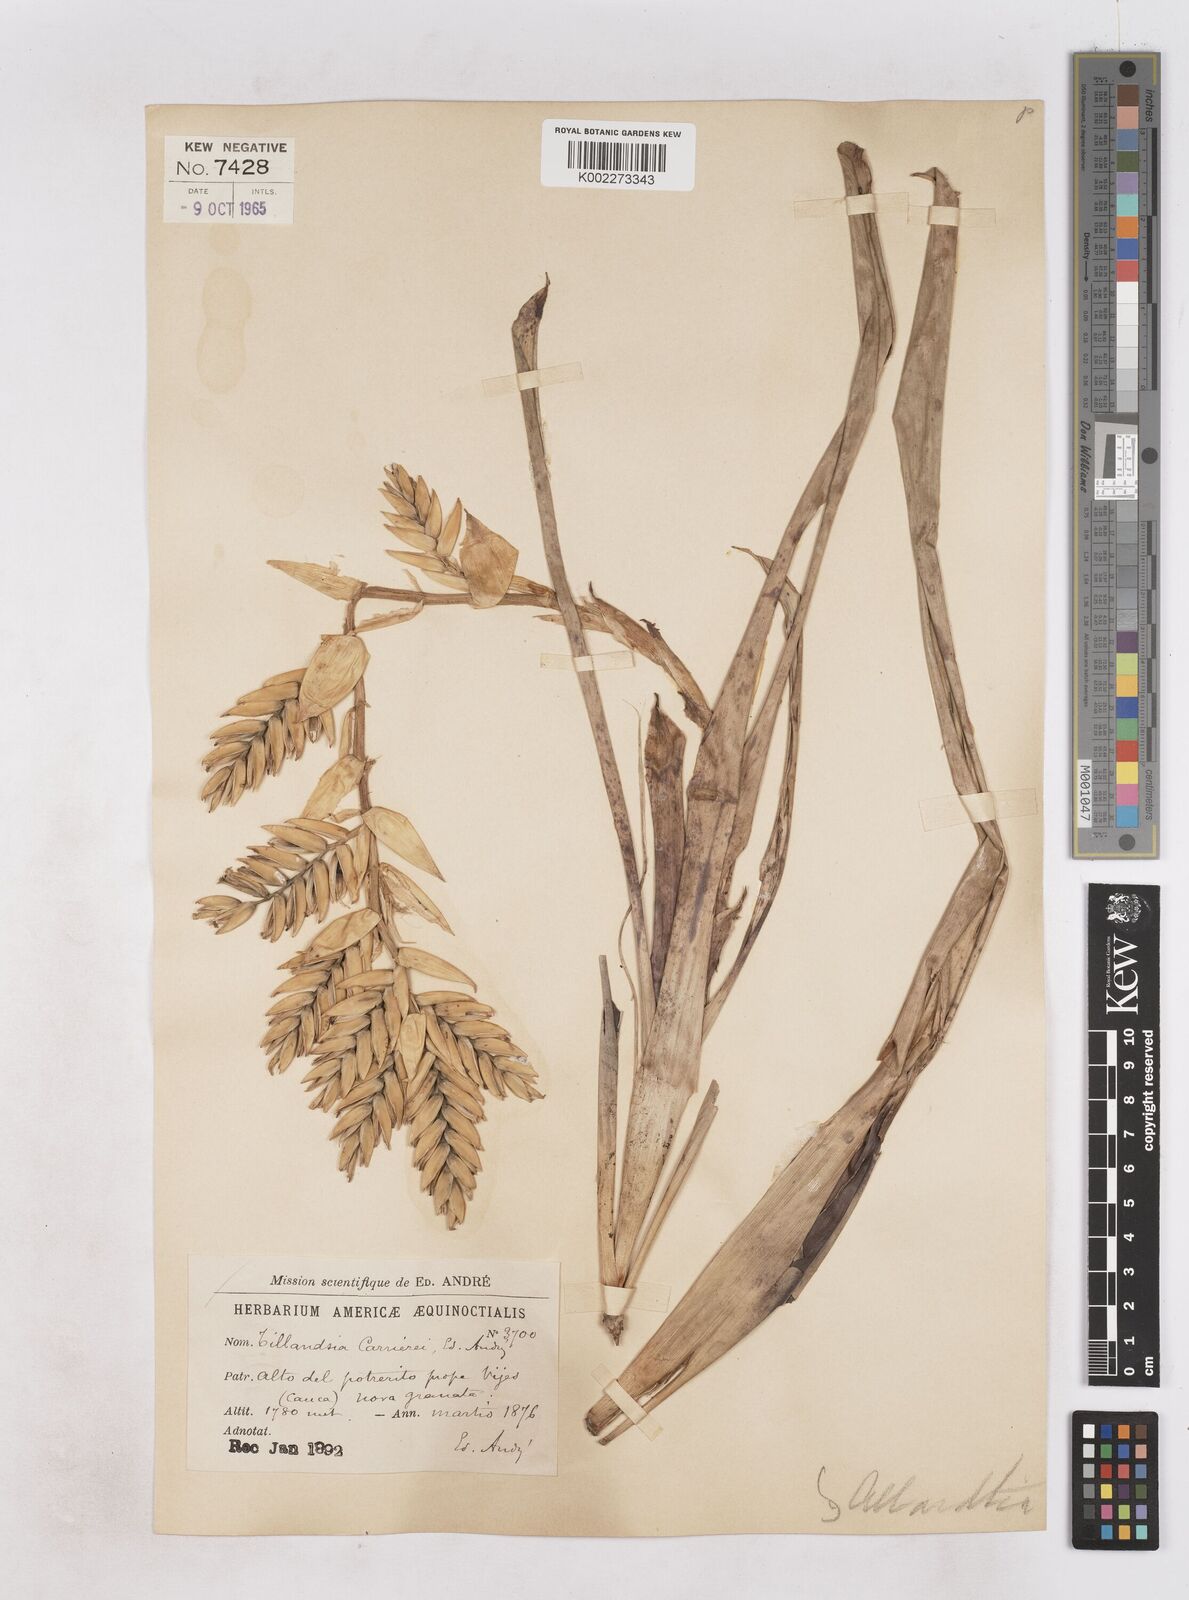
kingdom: Plantae
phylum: Tracheophyta
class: Liliopsida
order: Poales
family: Bromeliaceae
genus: Tillandsia
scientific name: Tillandsia carrierei
